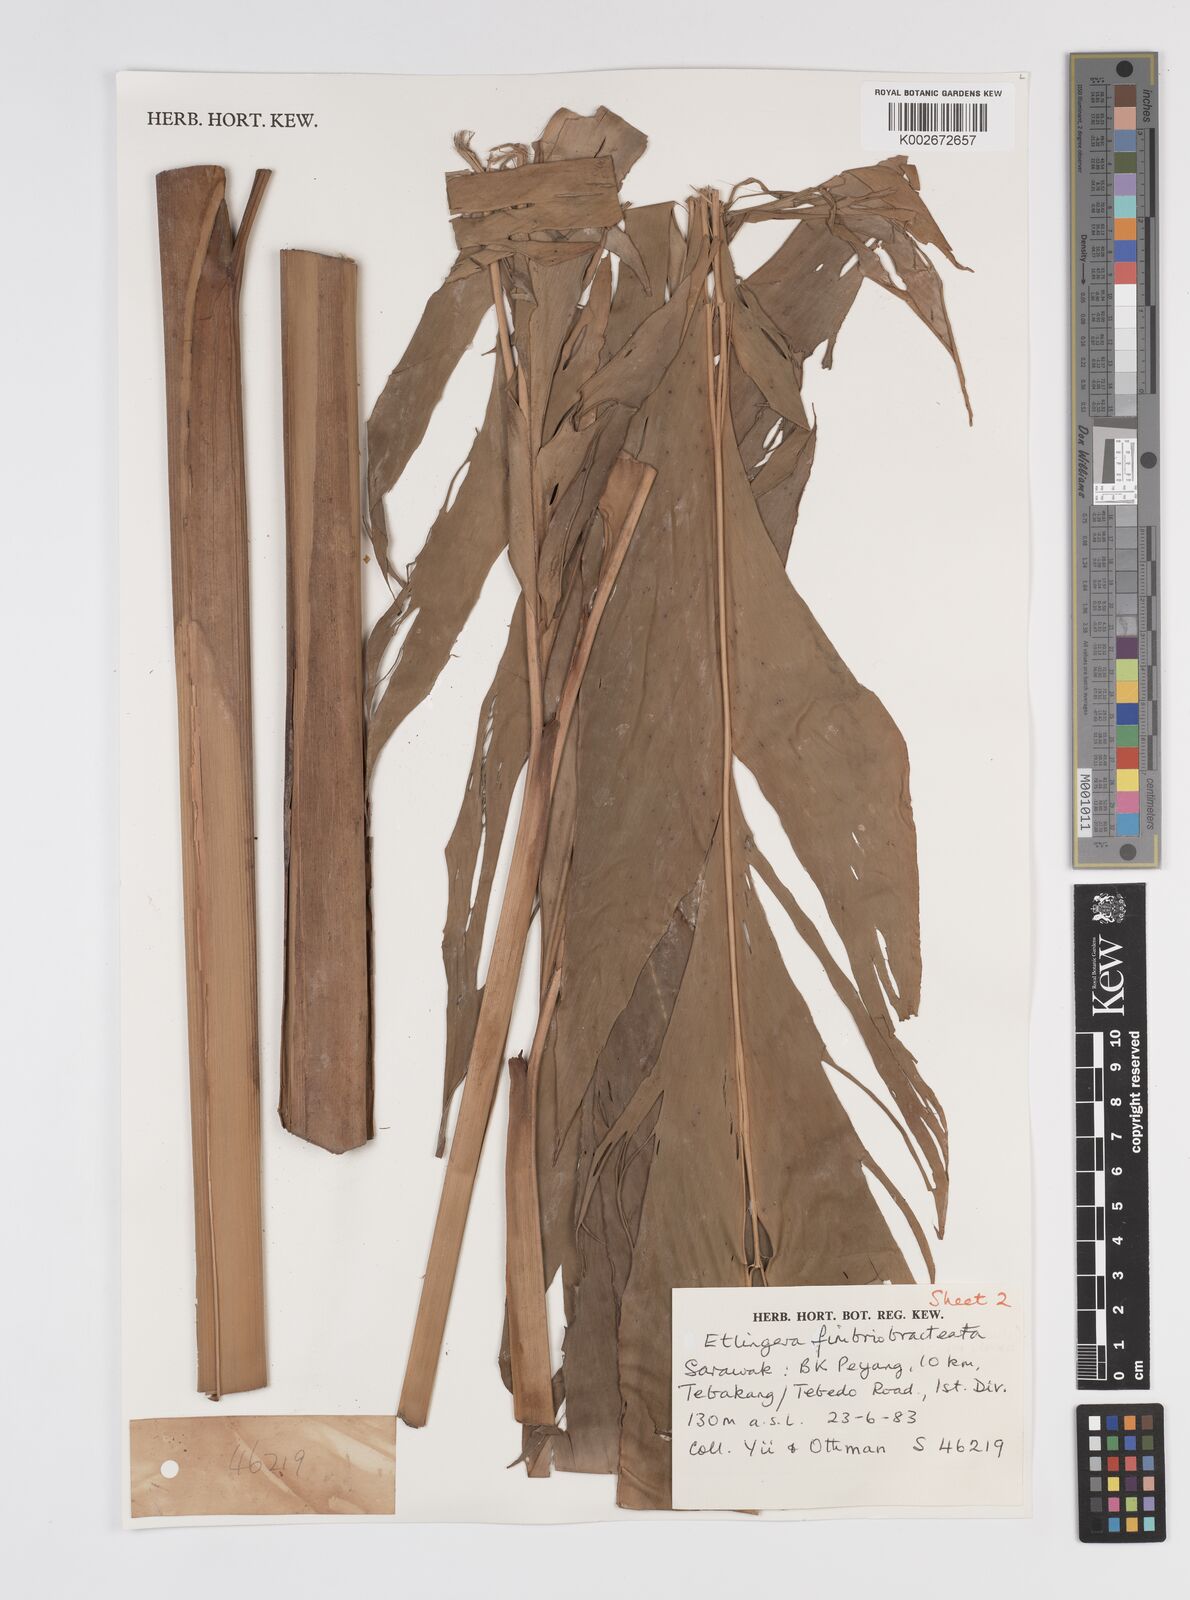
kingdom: Plantae
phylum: Tracheophyta
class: Liliopsida
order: Zingiberales
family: Zingiberaceae
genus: Etlingera
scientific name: Etlingera fimbriobracteata
